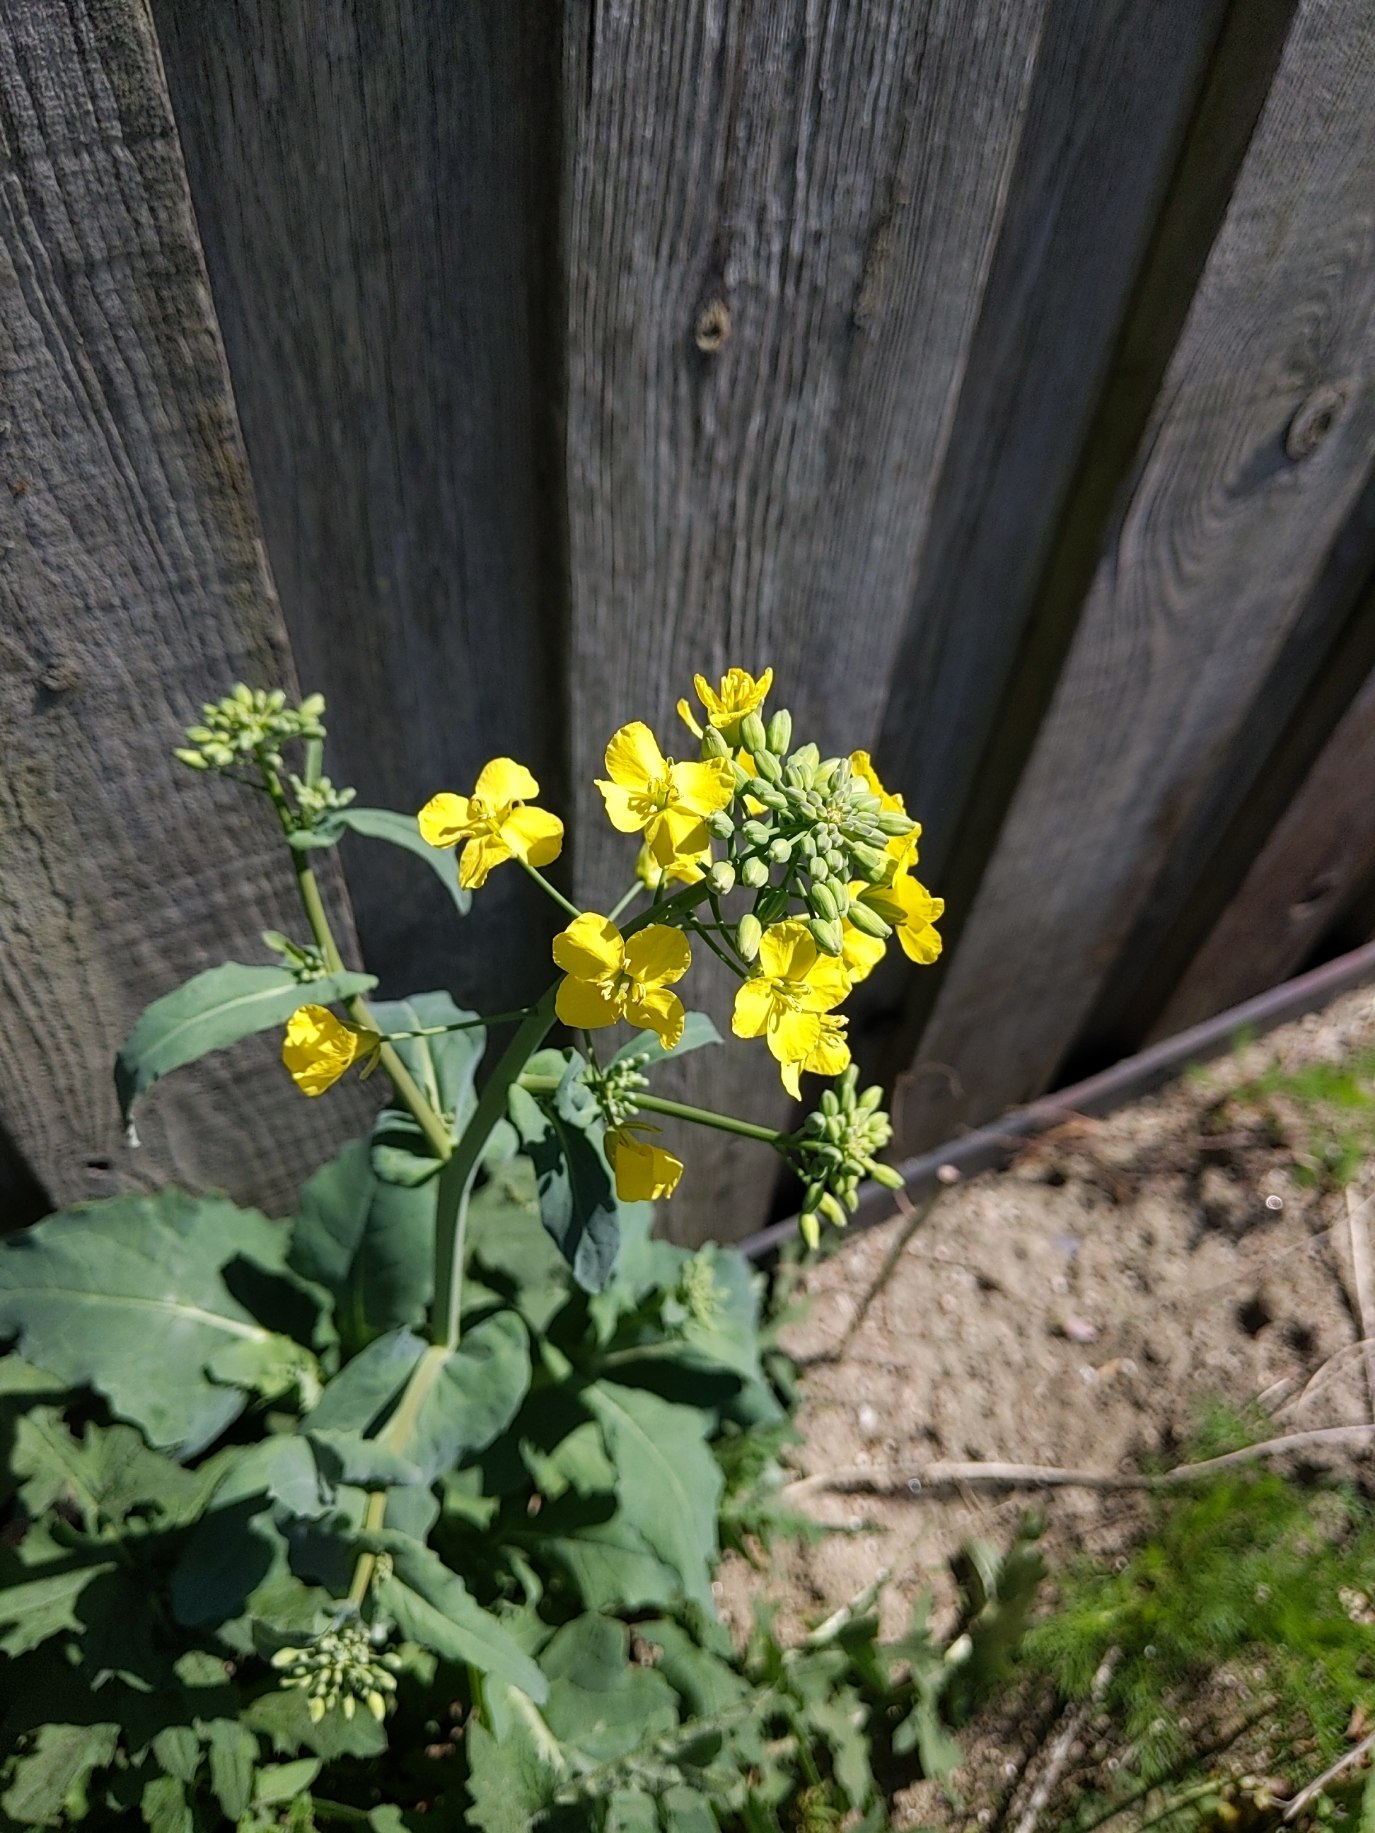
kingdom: Plantae
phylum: Tracheophyta
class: Magnoliopsida
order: Brassicales
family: Brassicaceae
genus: Brassica
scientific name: Brassica napus
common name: Raps
